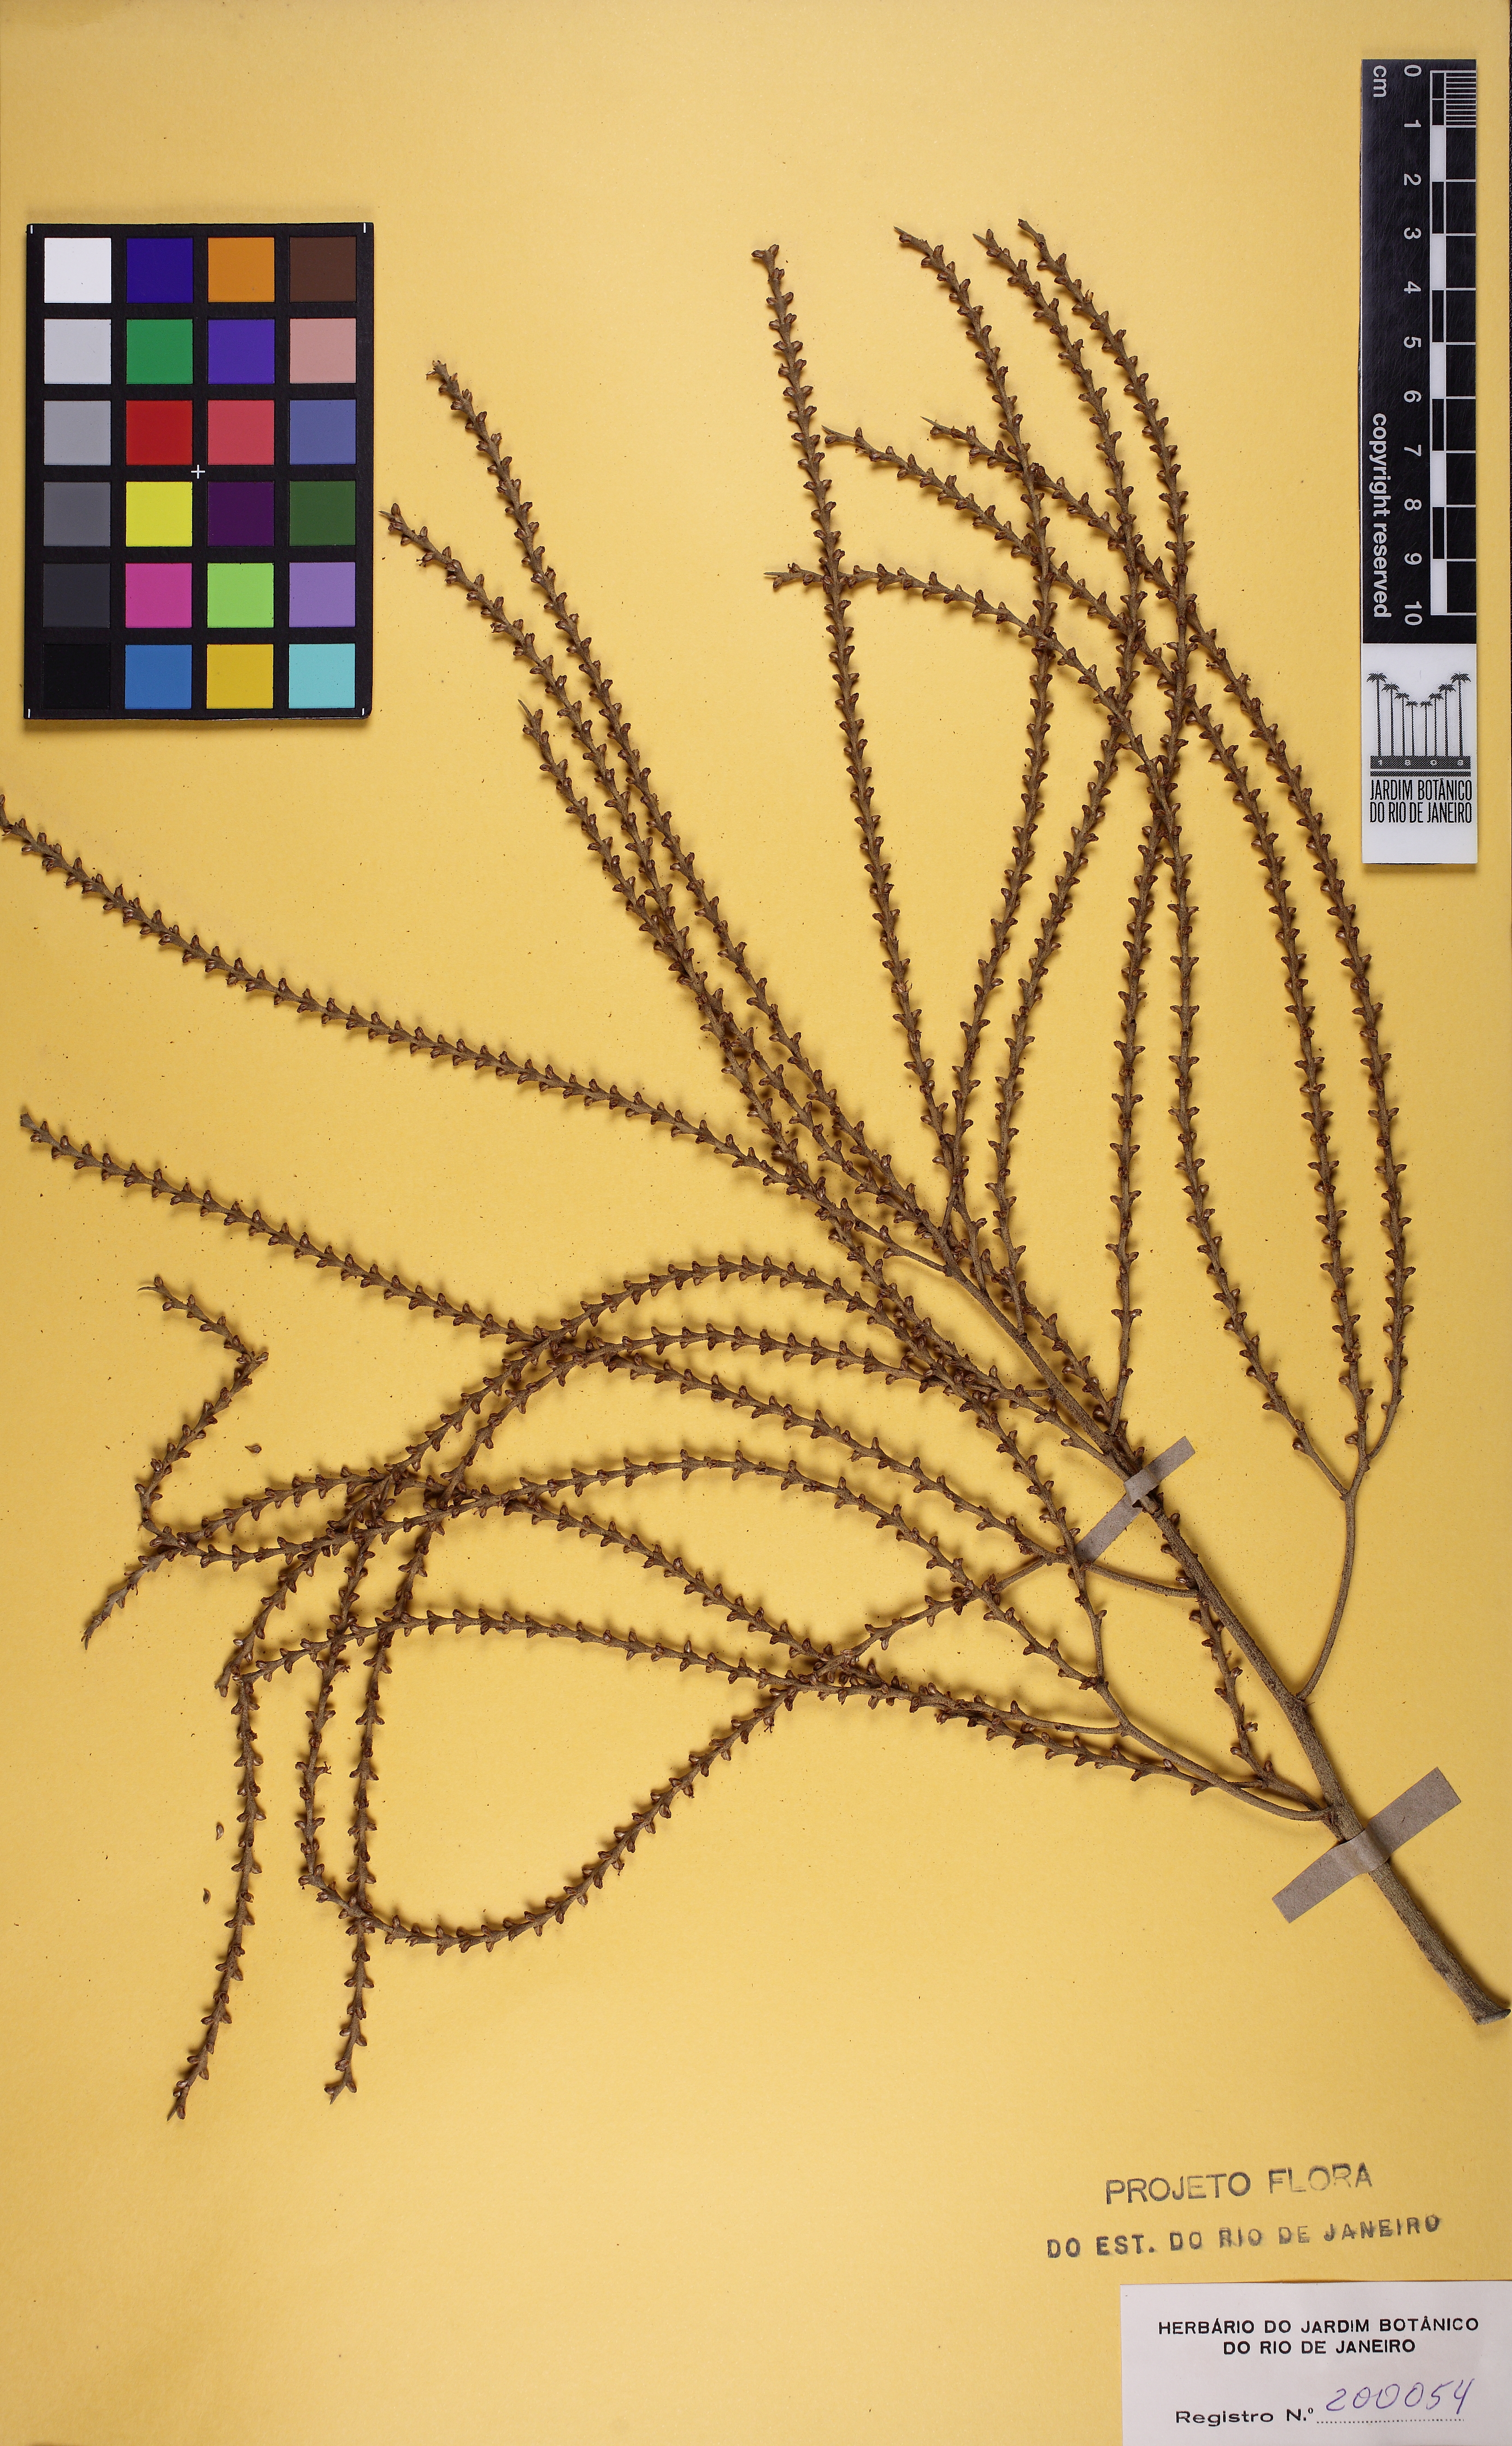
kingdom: Plantae
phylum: Tracheophyta
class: Liliopsida
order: Arecales
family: Arecaceae
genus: Geonoma
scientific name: Geonoma schottiana
